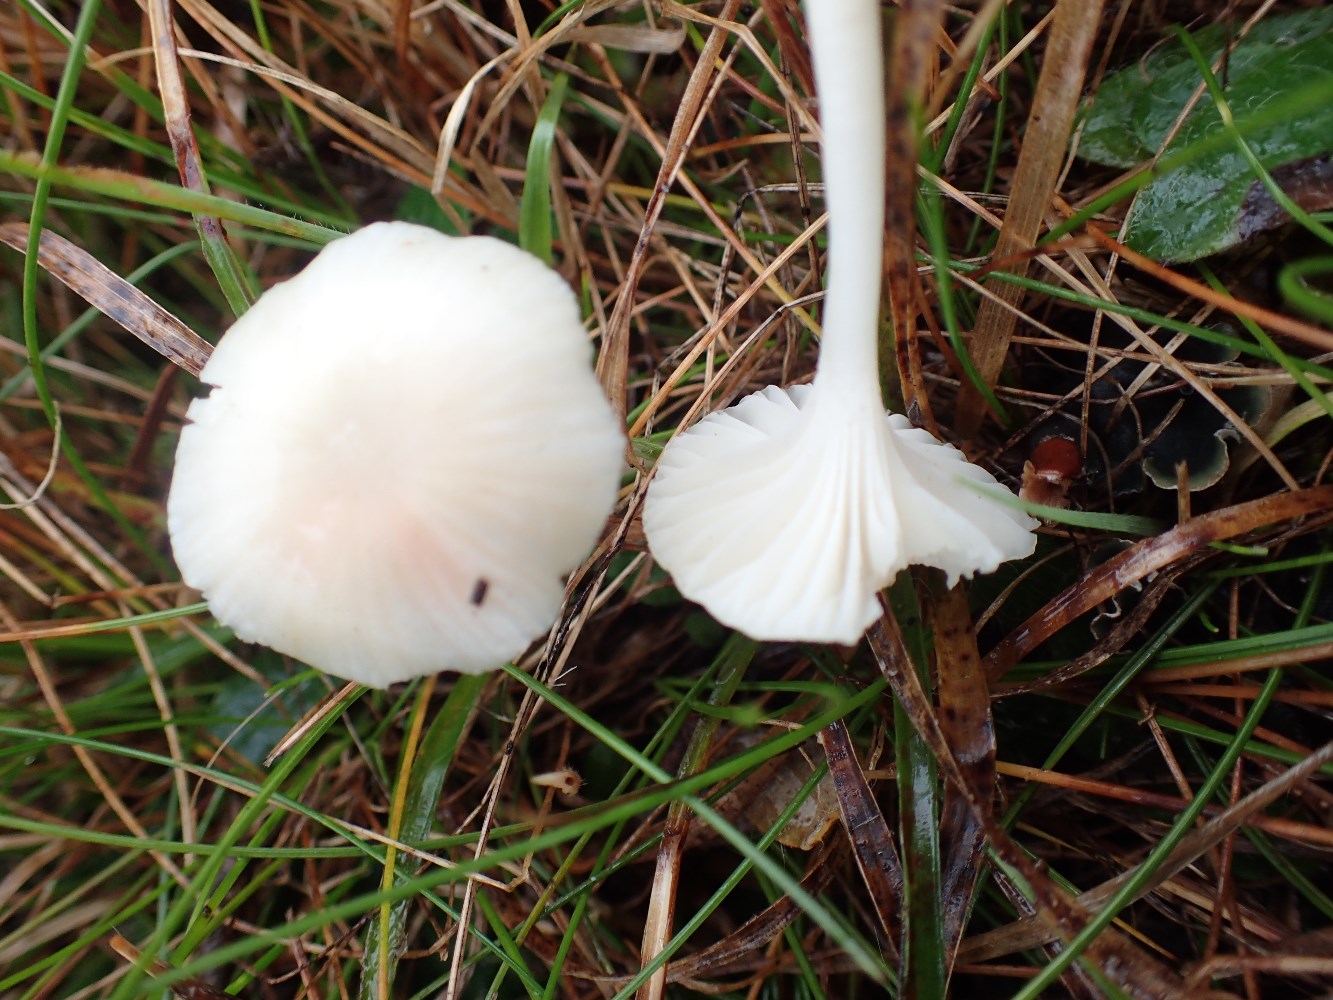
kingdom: Fungi
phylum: Basidiomycota
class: Agaricomycetes
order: Agaricales
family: Hygrophoraceae
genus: Cuphophyllus
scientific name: Cuphophyllus virgineus
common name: snehvid vokshat
